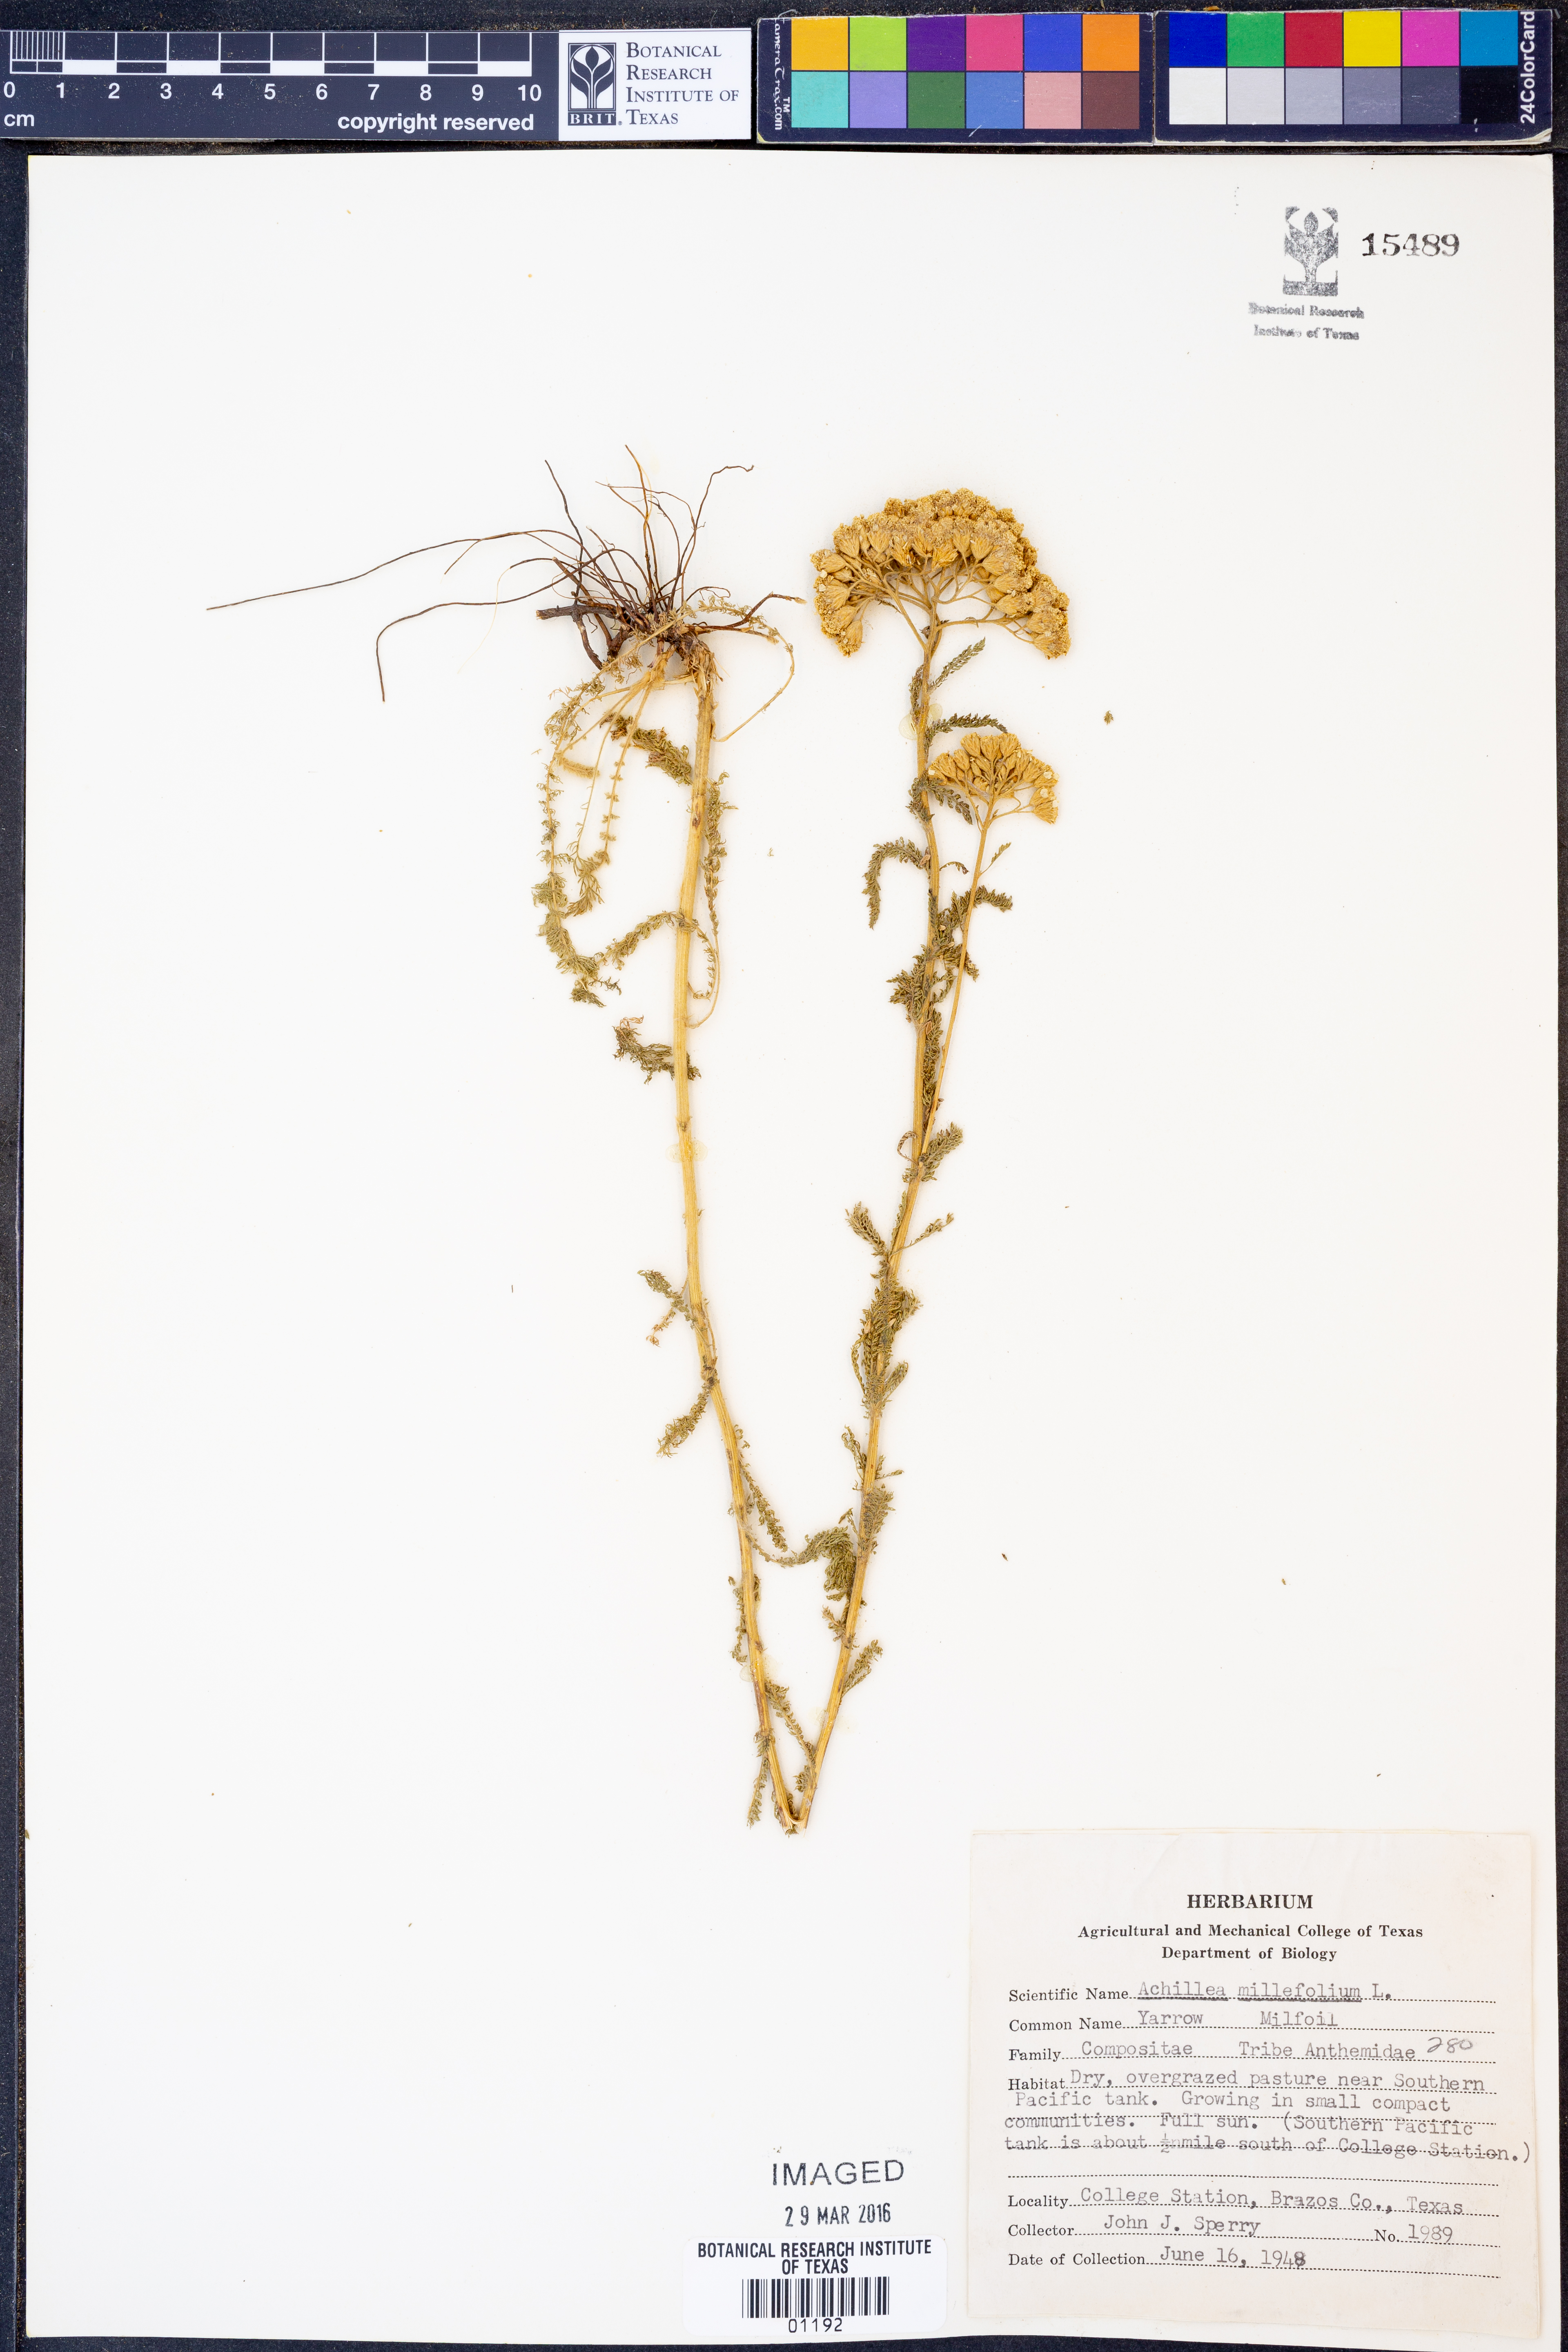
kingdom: Plantae
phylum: Tracheophyta
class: Magnoliopsida
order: Asterales
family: Asteraceae
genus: Achillea
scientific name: Achillea millefolium
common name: Yarrow
